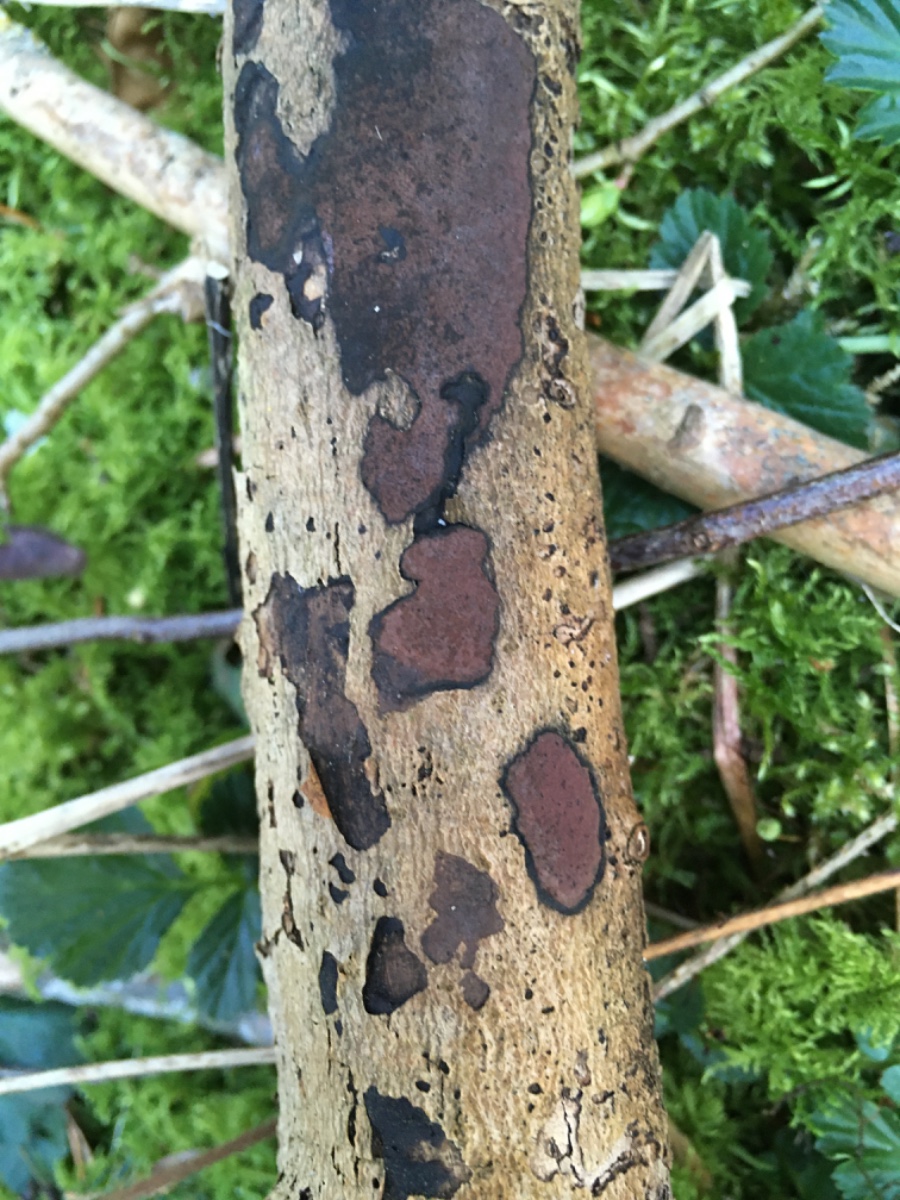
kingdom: Fungi
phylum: Ascomycota
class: Sordariomycetes
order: Xylariales
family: Hypoxylaceae
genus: Hypoxylon
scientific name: Hypoxylon petriniae
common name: nedsænket kulbær
